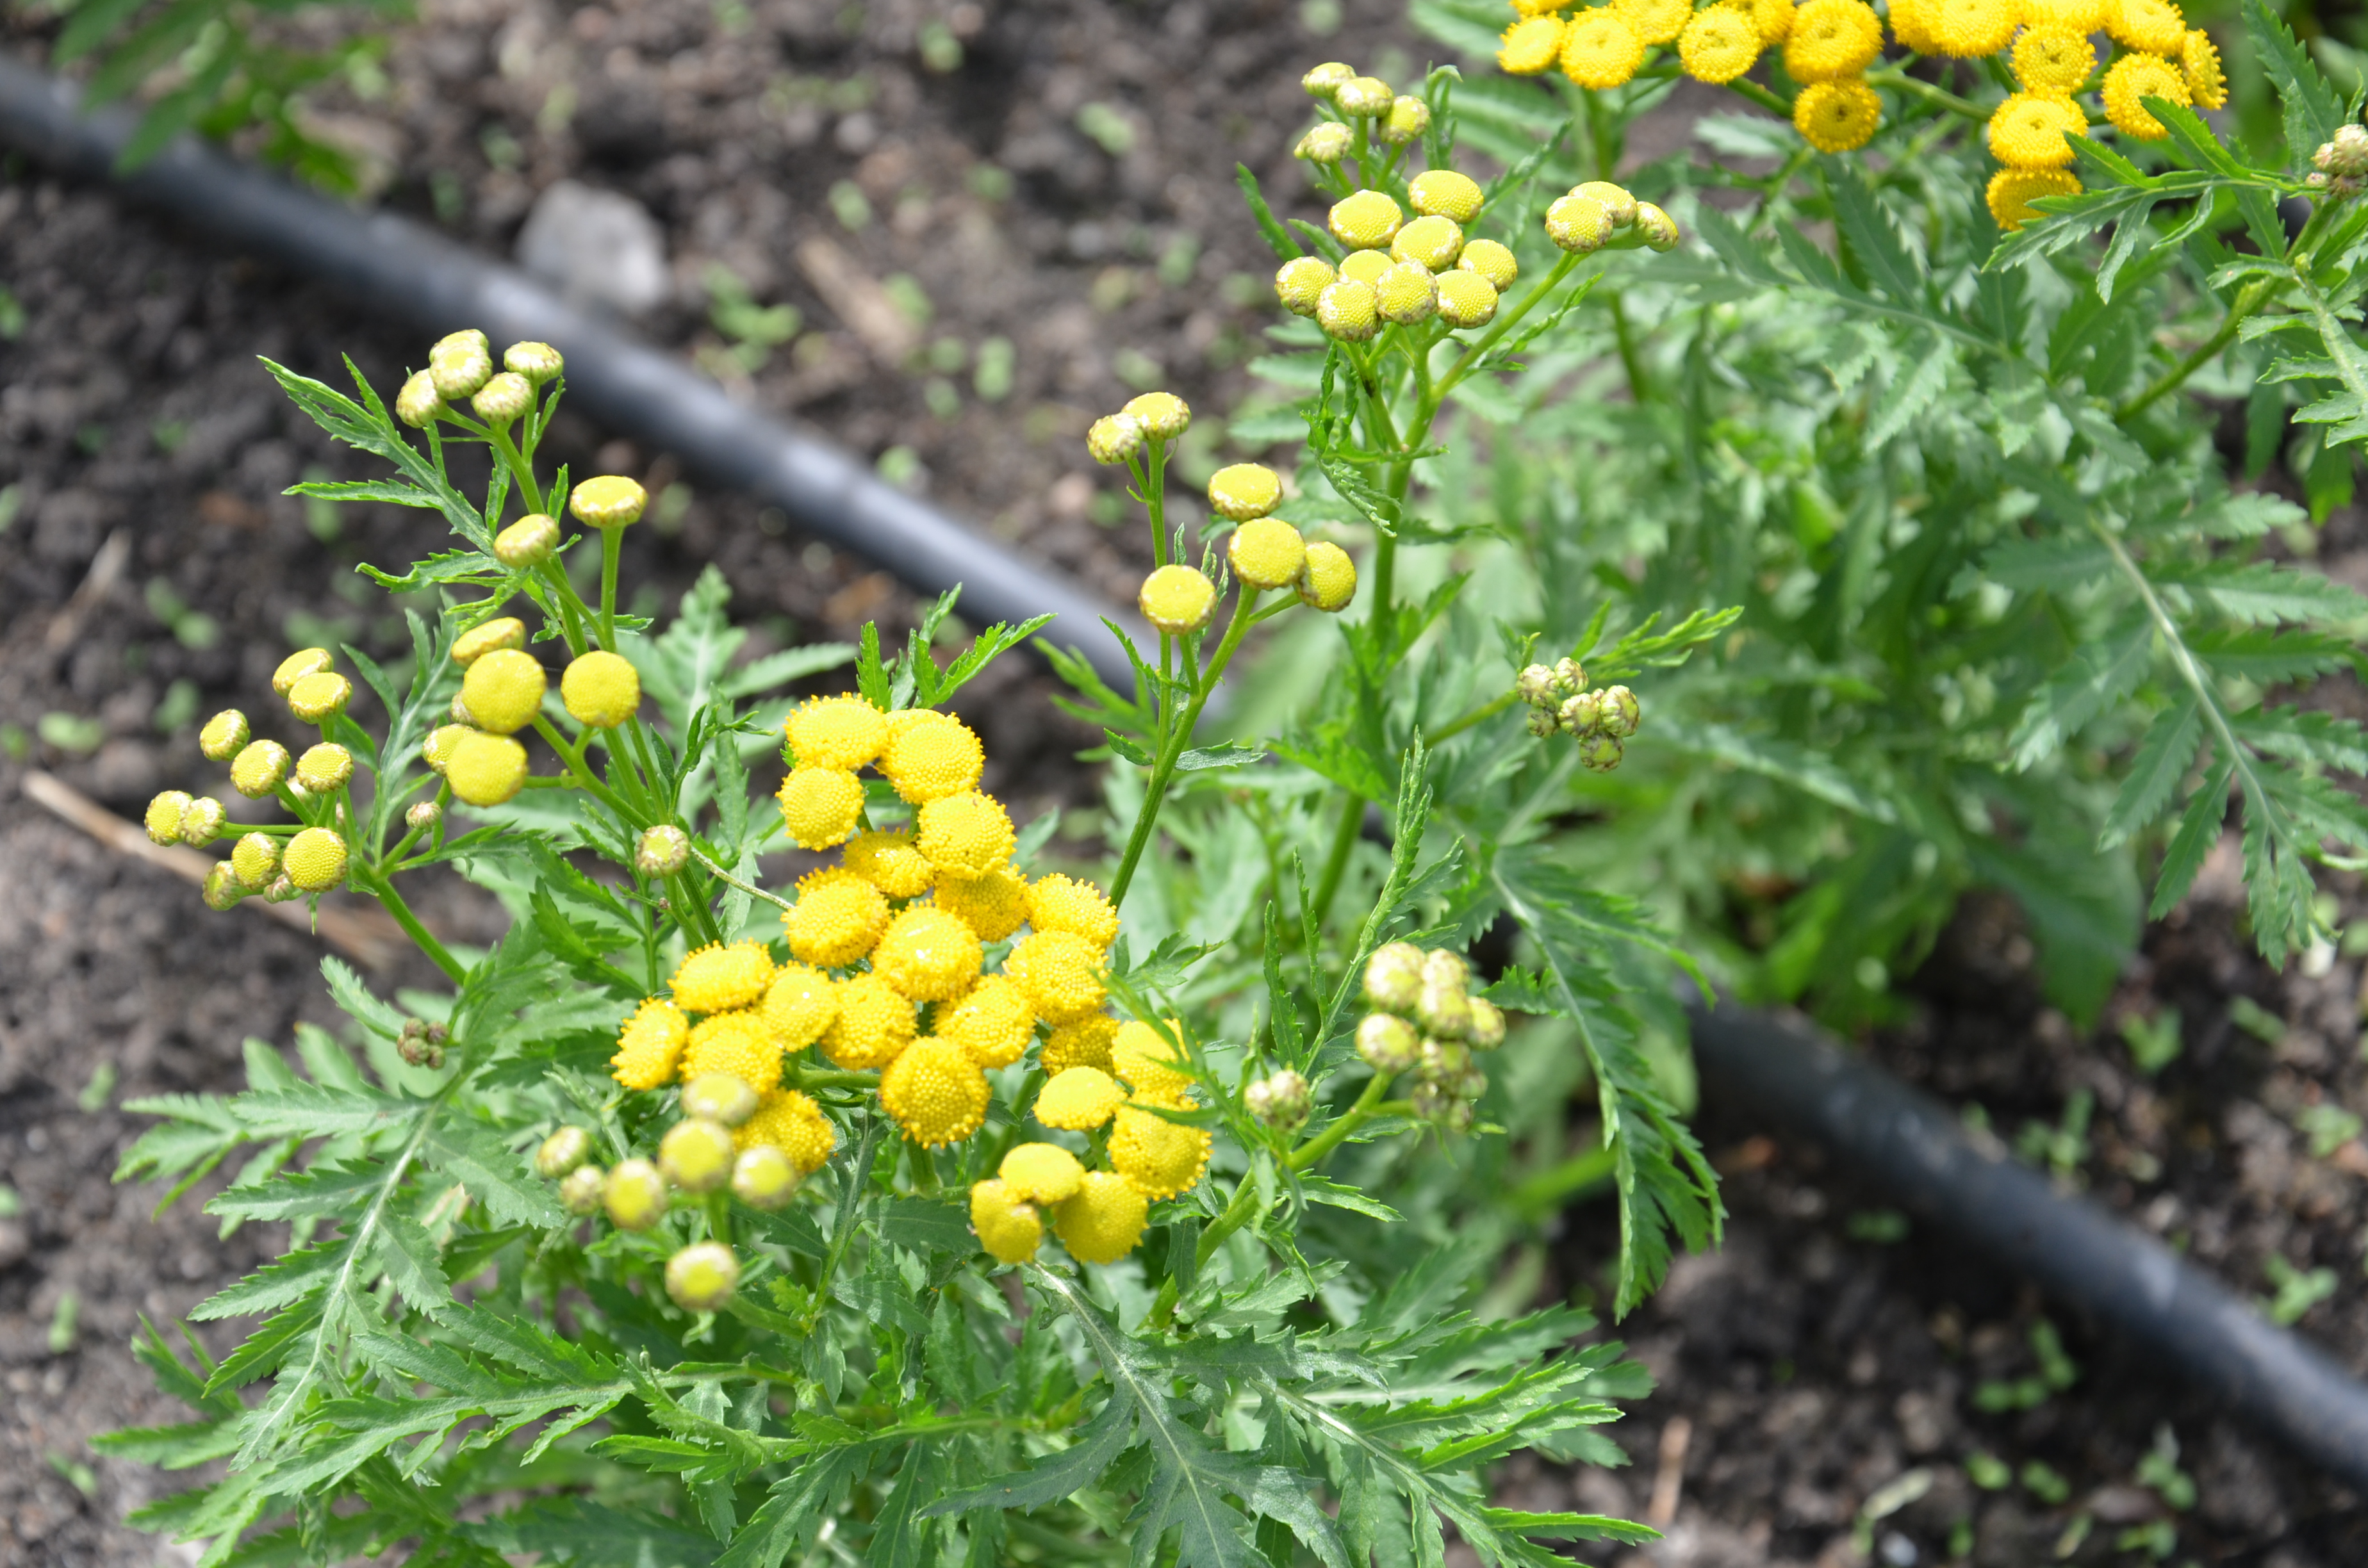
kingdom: Plantae
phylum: Tracheophyta
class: Magnoliopsida
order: Asterales
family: Asteraceae
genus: Tanacetum
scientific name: Tanacetum vulgare
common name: Common tansy
